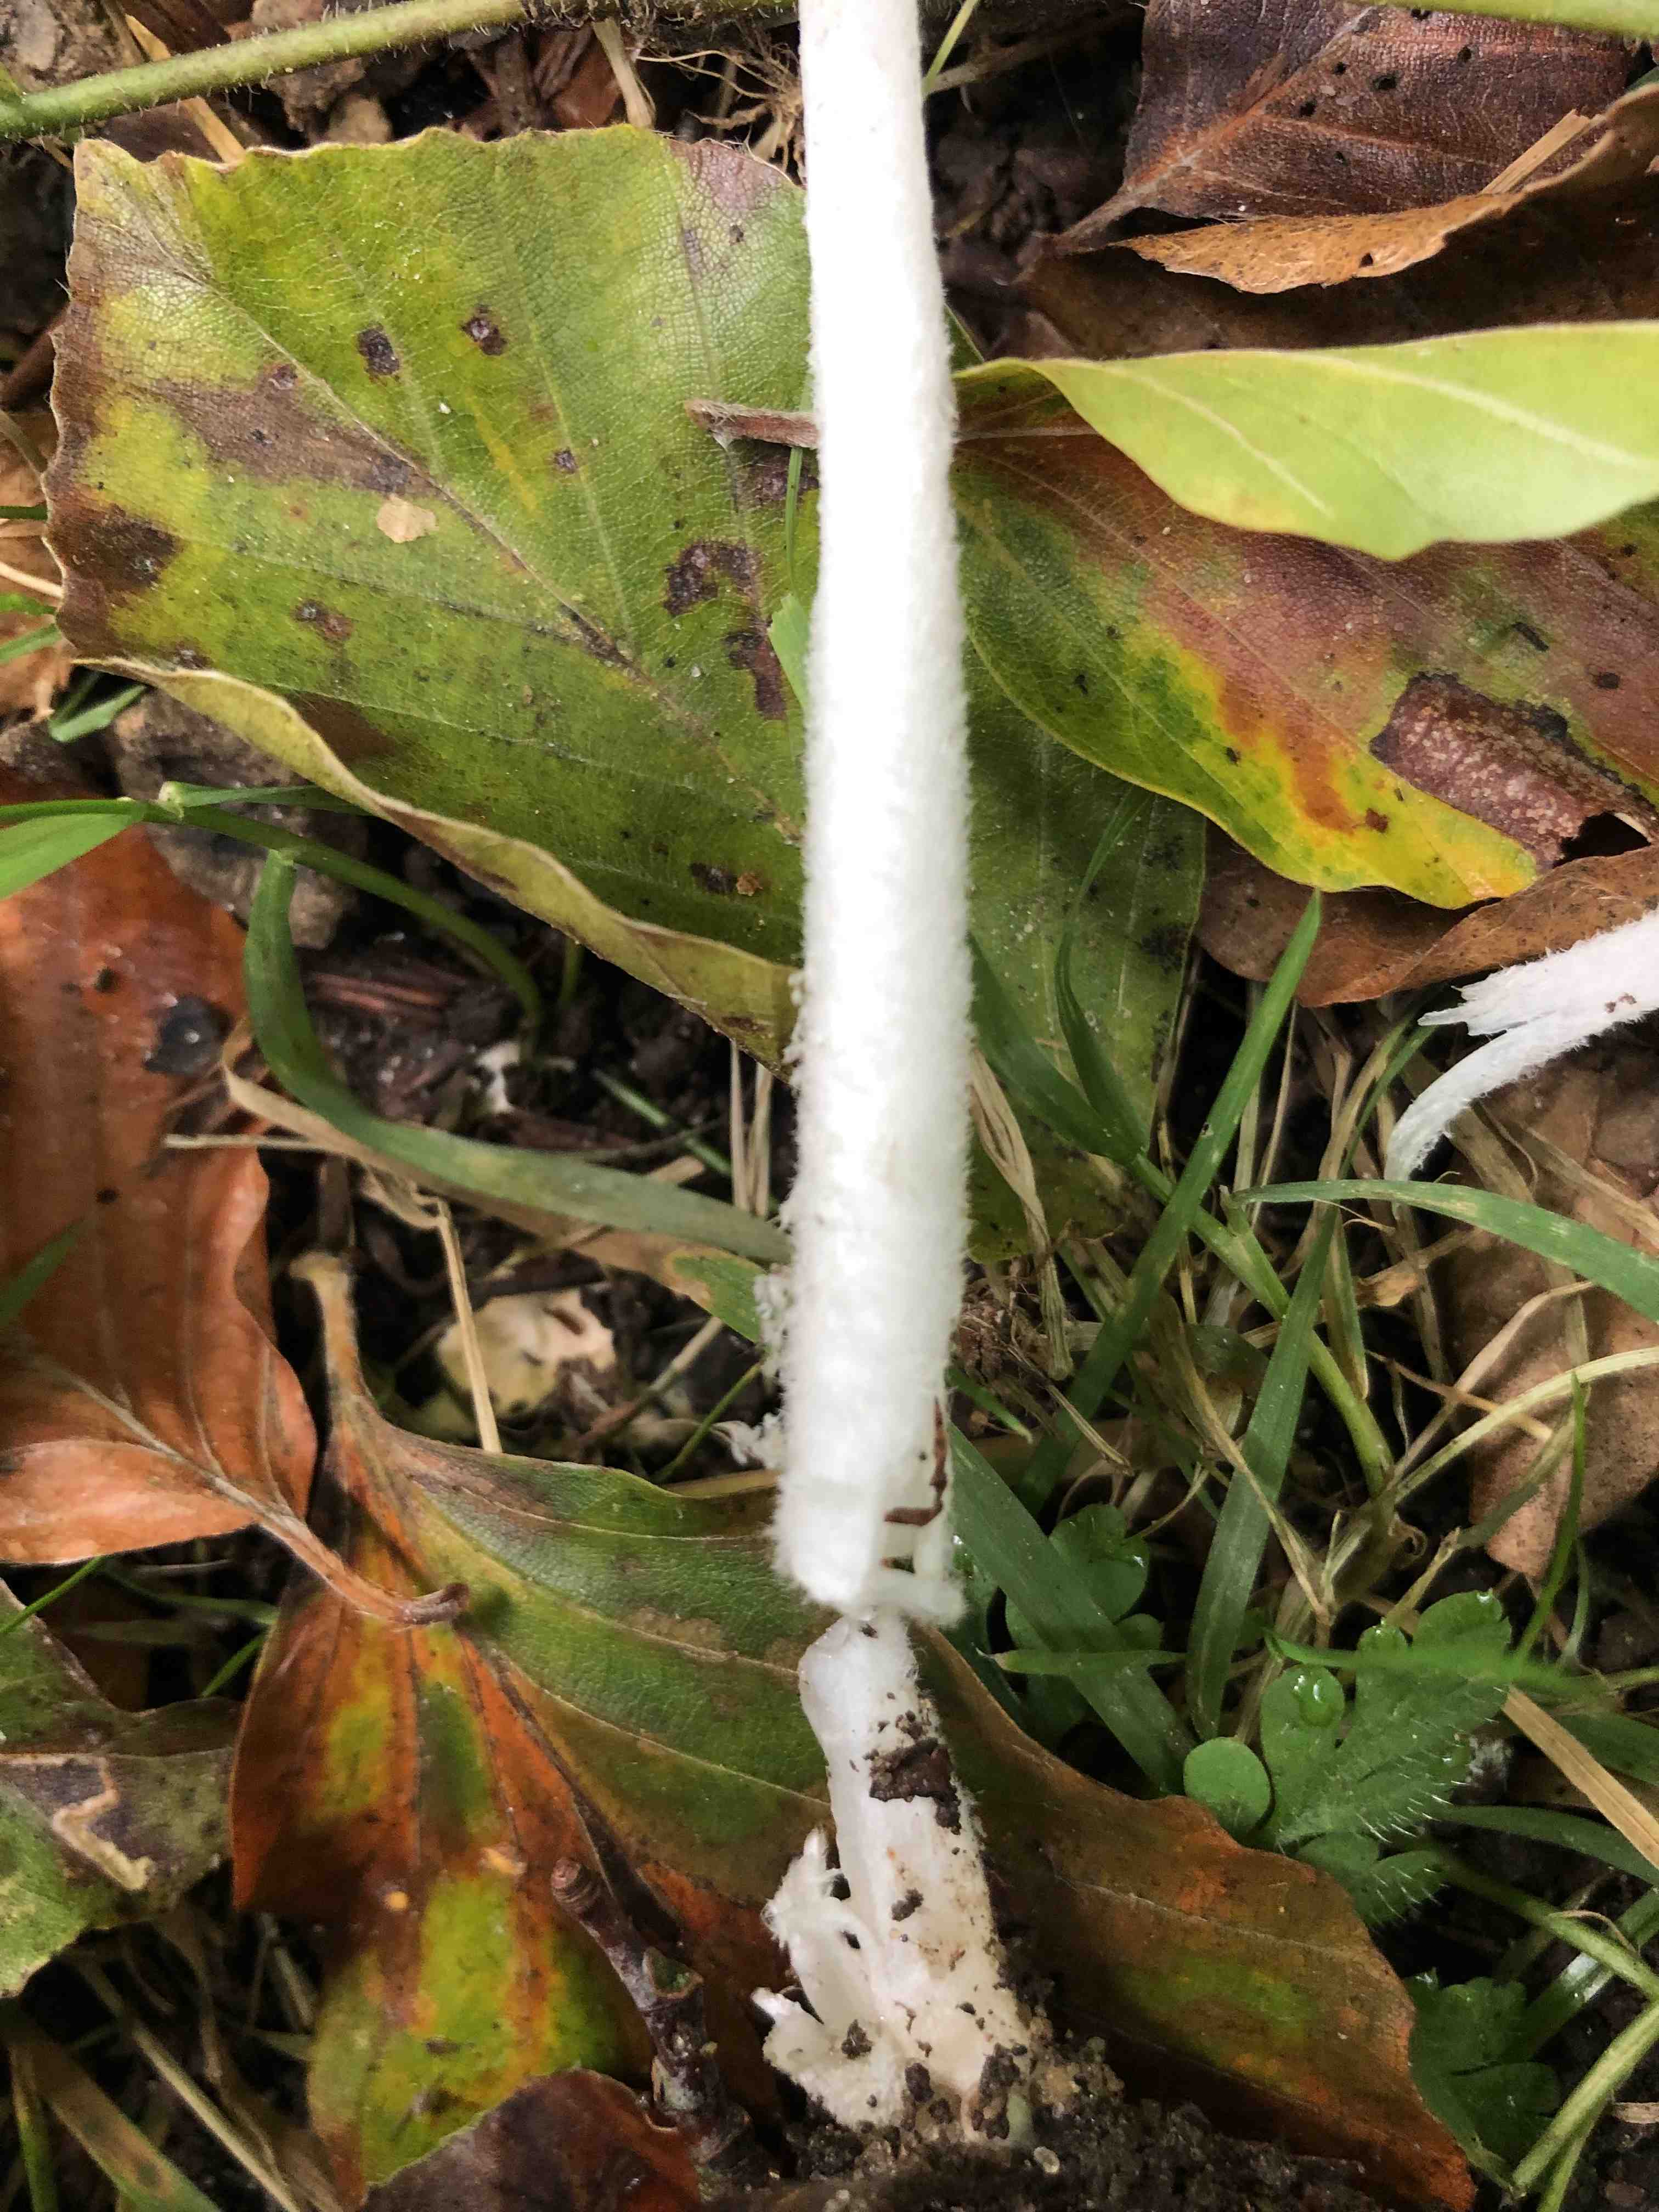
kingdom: Fungi
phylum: Basidiomycota
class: Agaricomycetes
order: Agaricales
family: Psathyrellaceae
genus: Coprinopsis
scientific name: Coprinopsis lagopus
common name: dunstokket blækhat
